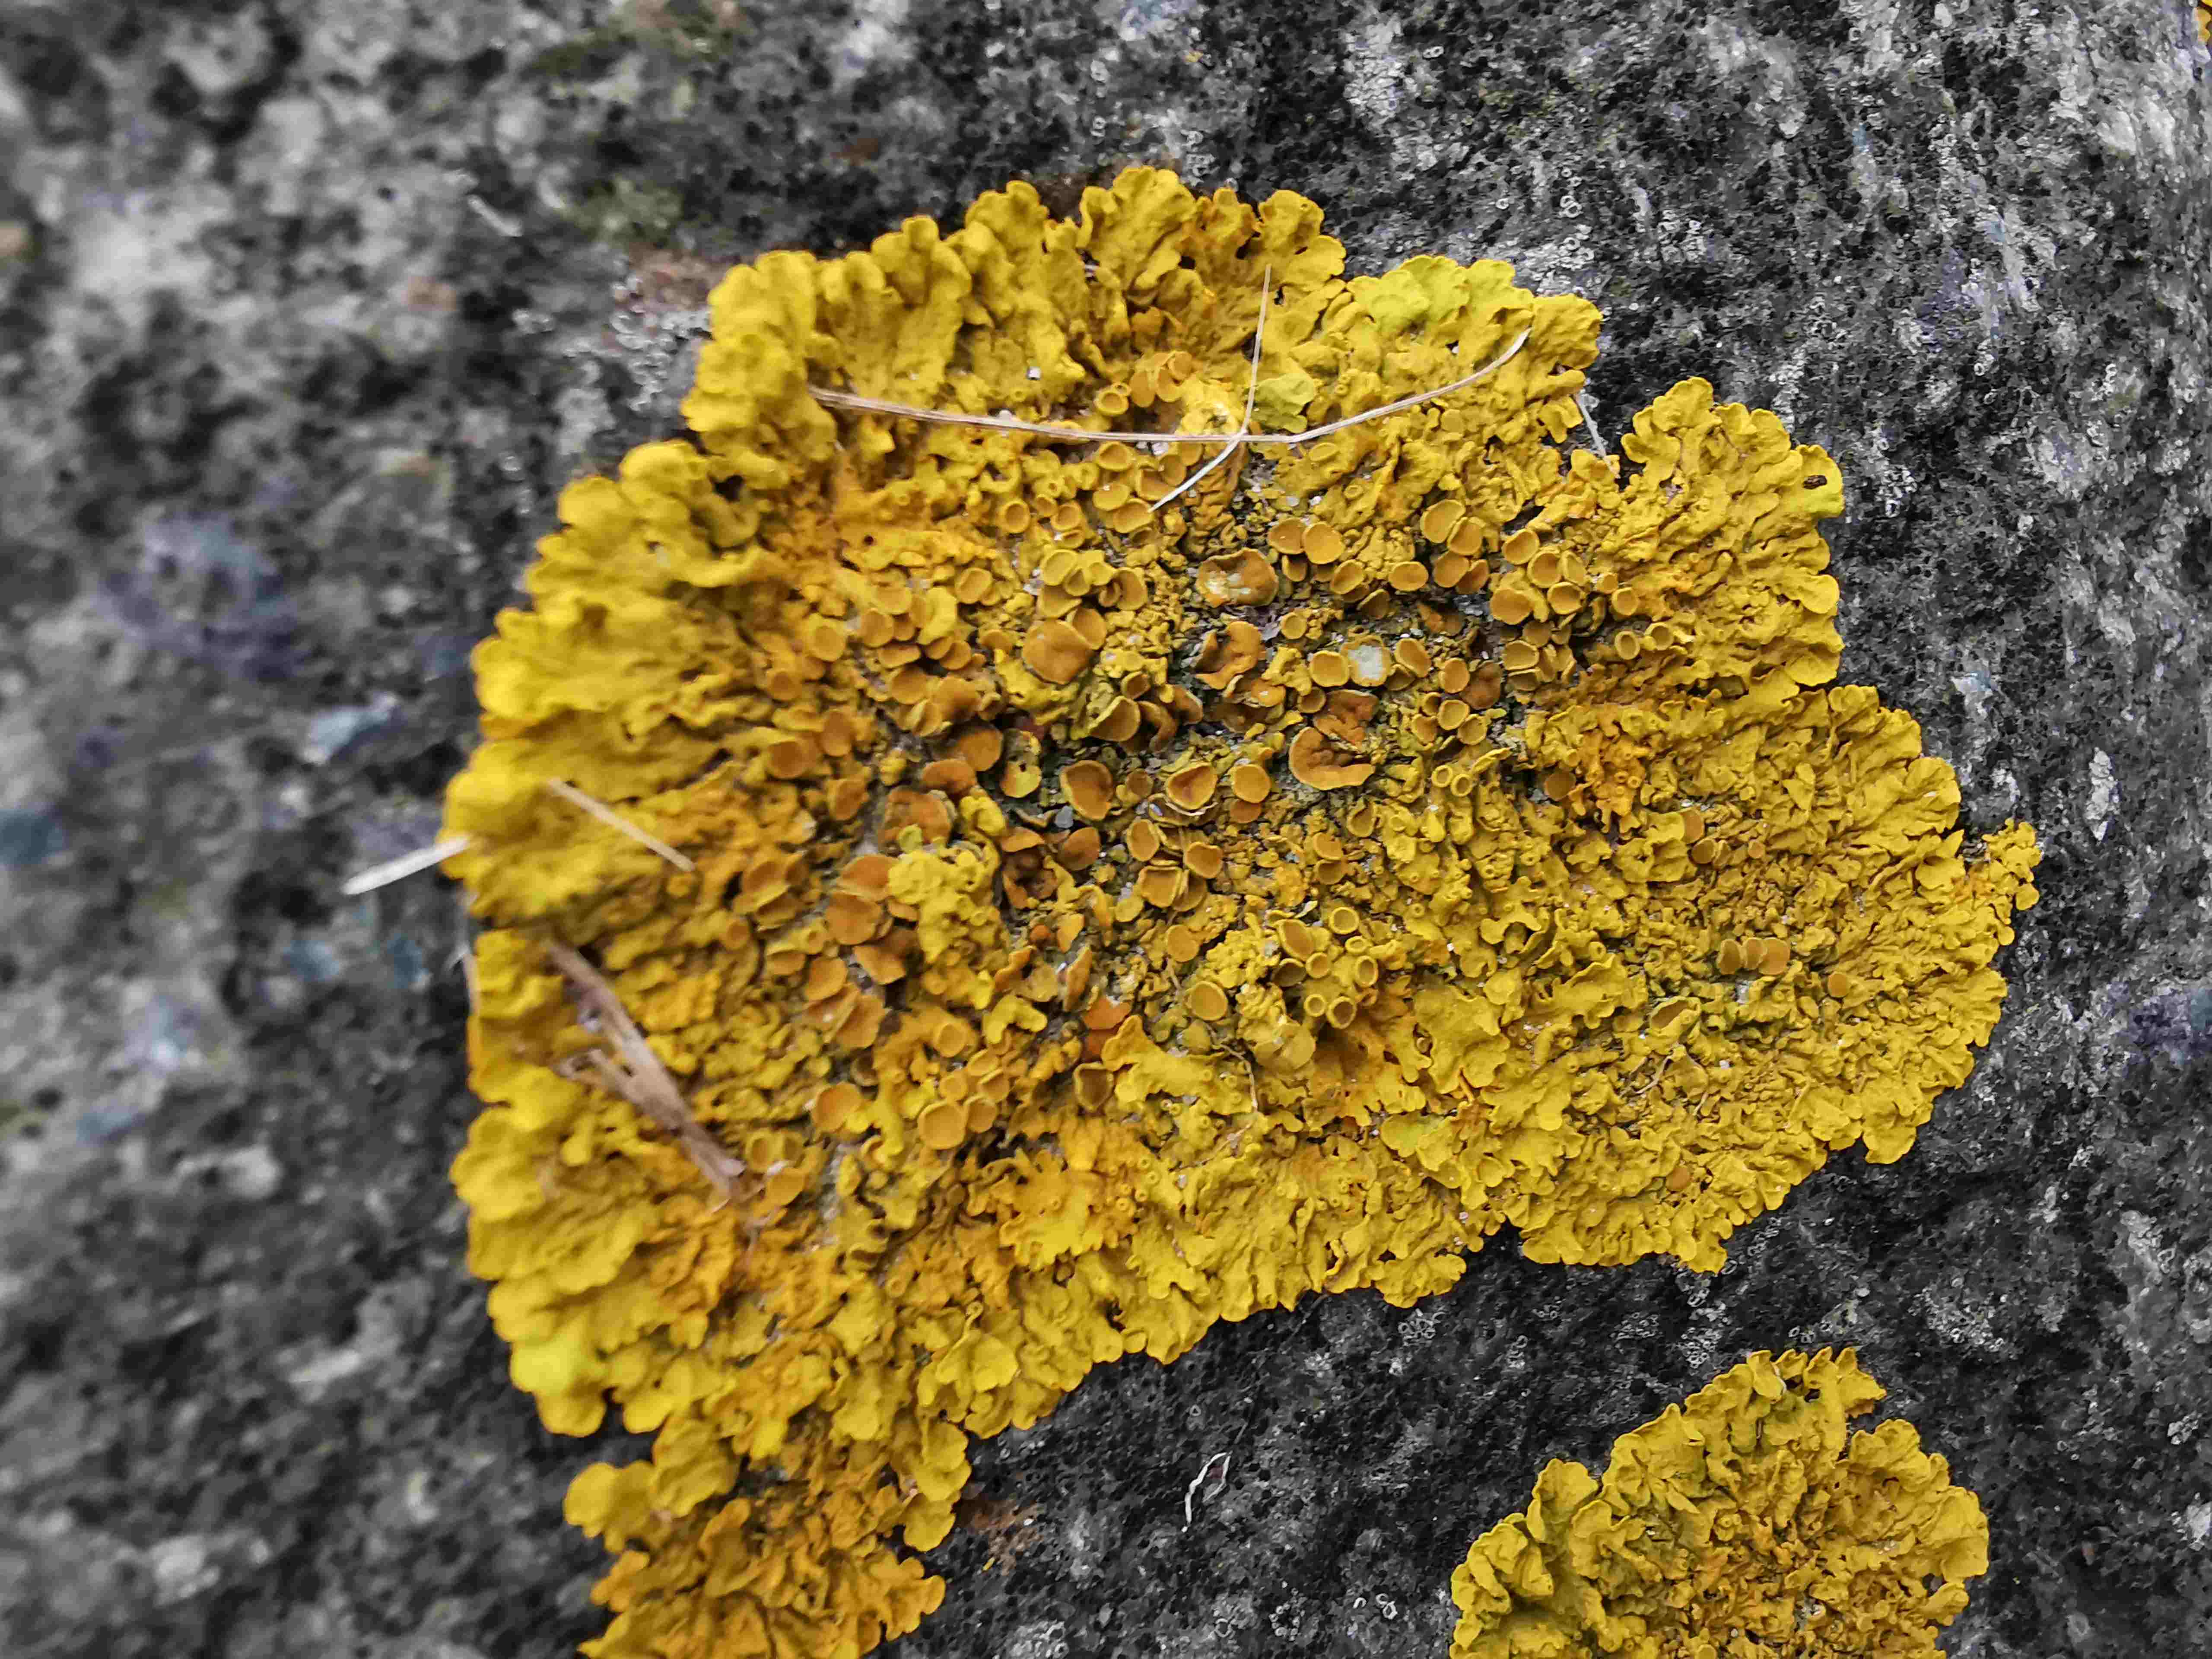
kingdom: Fungi
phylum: Ascomycota
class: Lecanoromycetes
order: Teloschistales
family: Teloschistaceae
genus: Xanthoria
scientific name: Xanthoria parietina
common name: almindelig væggelav
